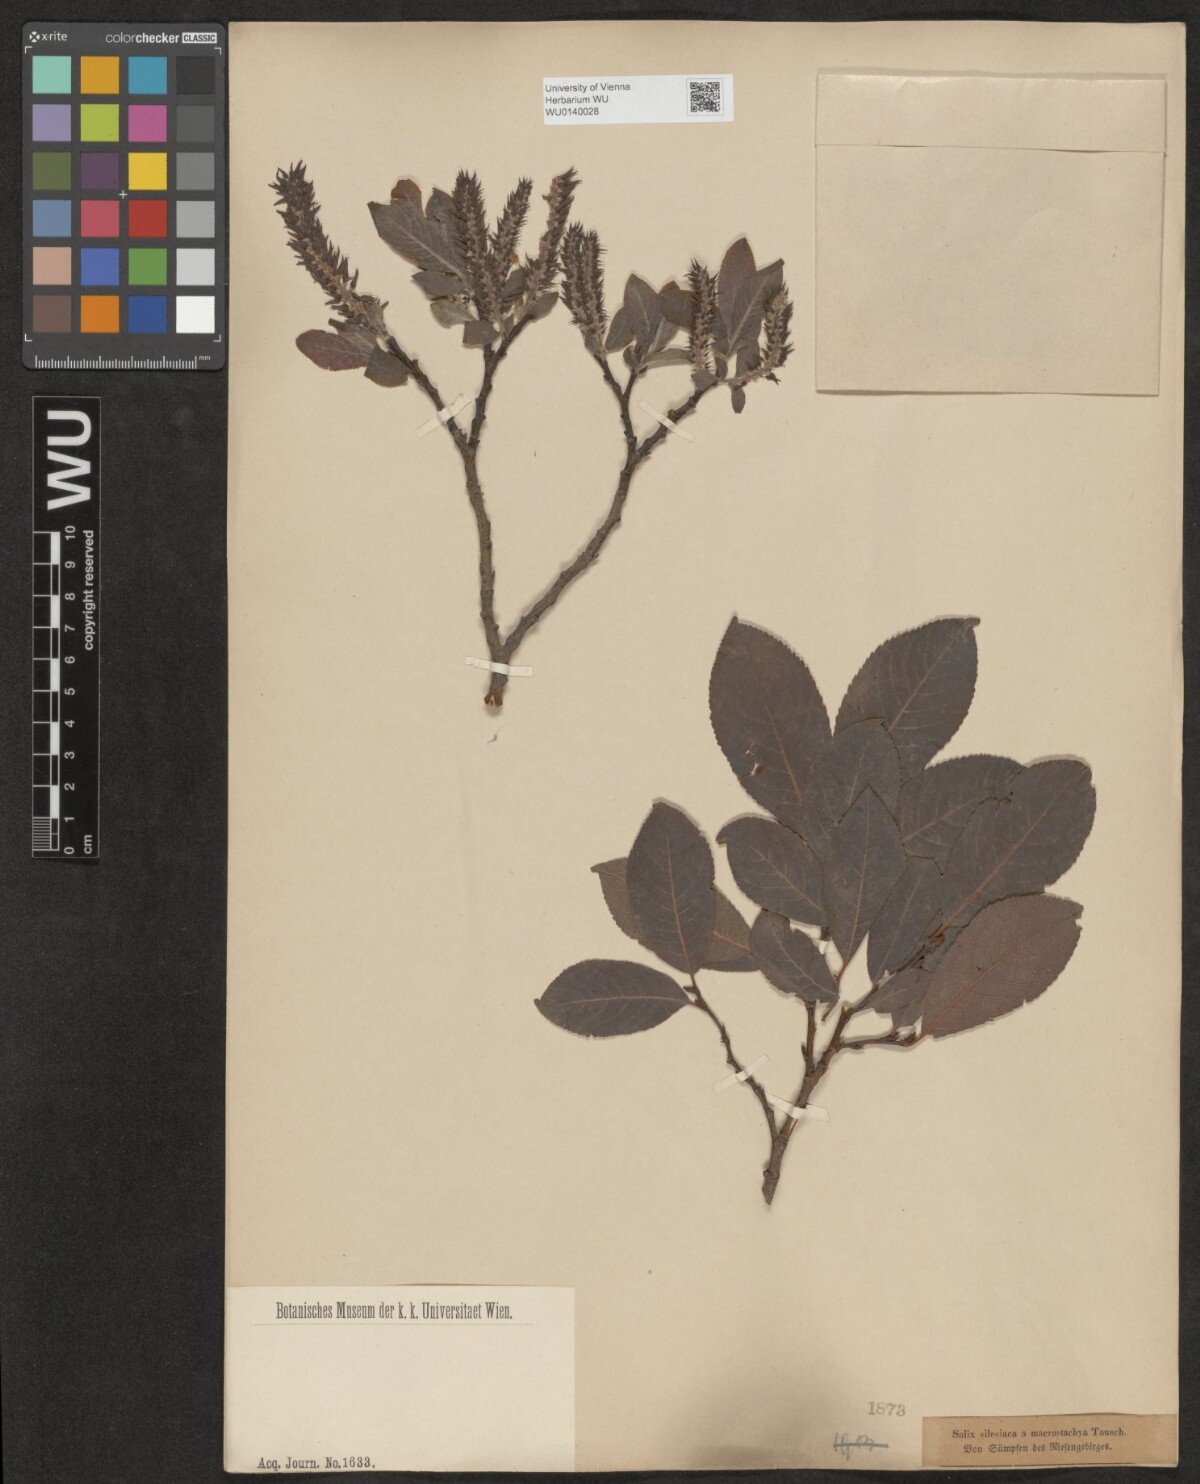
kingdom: Plantae
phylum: Tracheophyta
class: Magnoliopsida
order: Malpighiales
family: Salicaceae
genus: Salix
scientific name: Salix silesiaca
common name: Silesian willow
